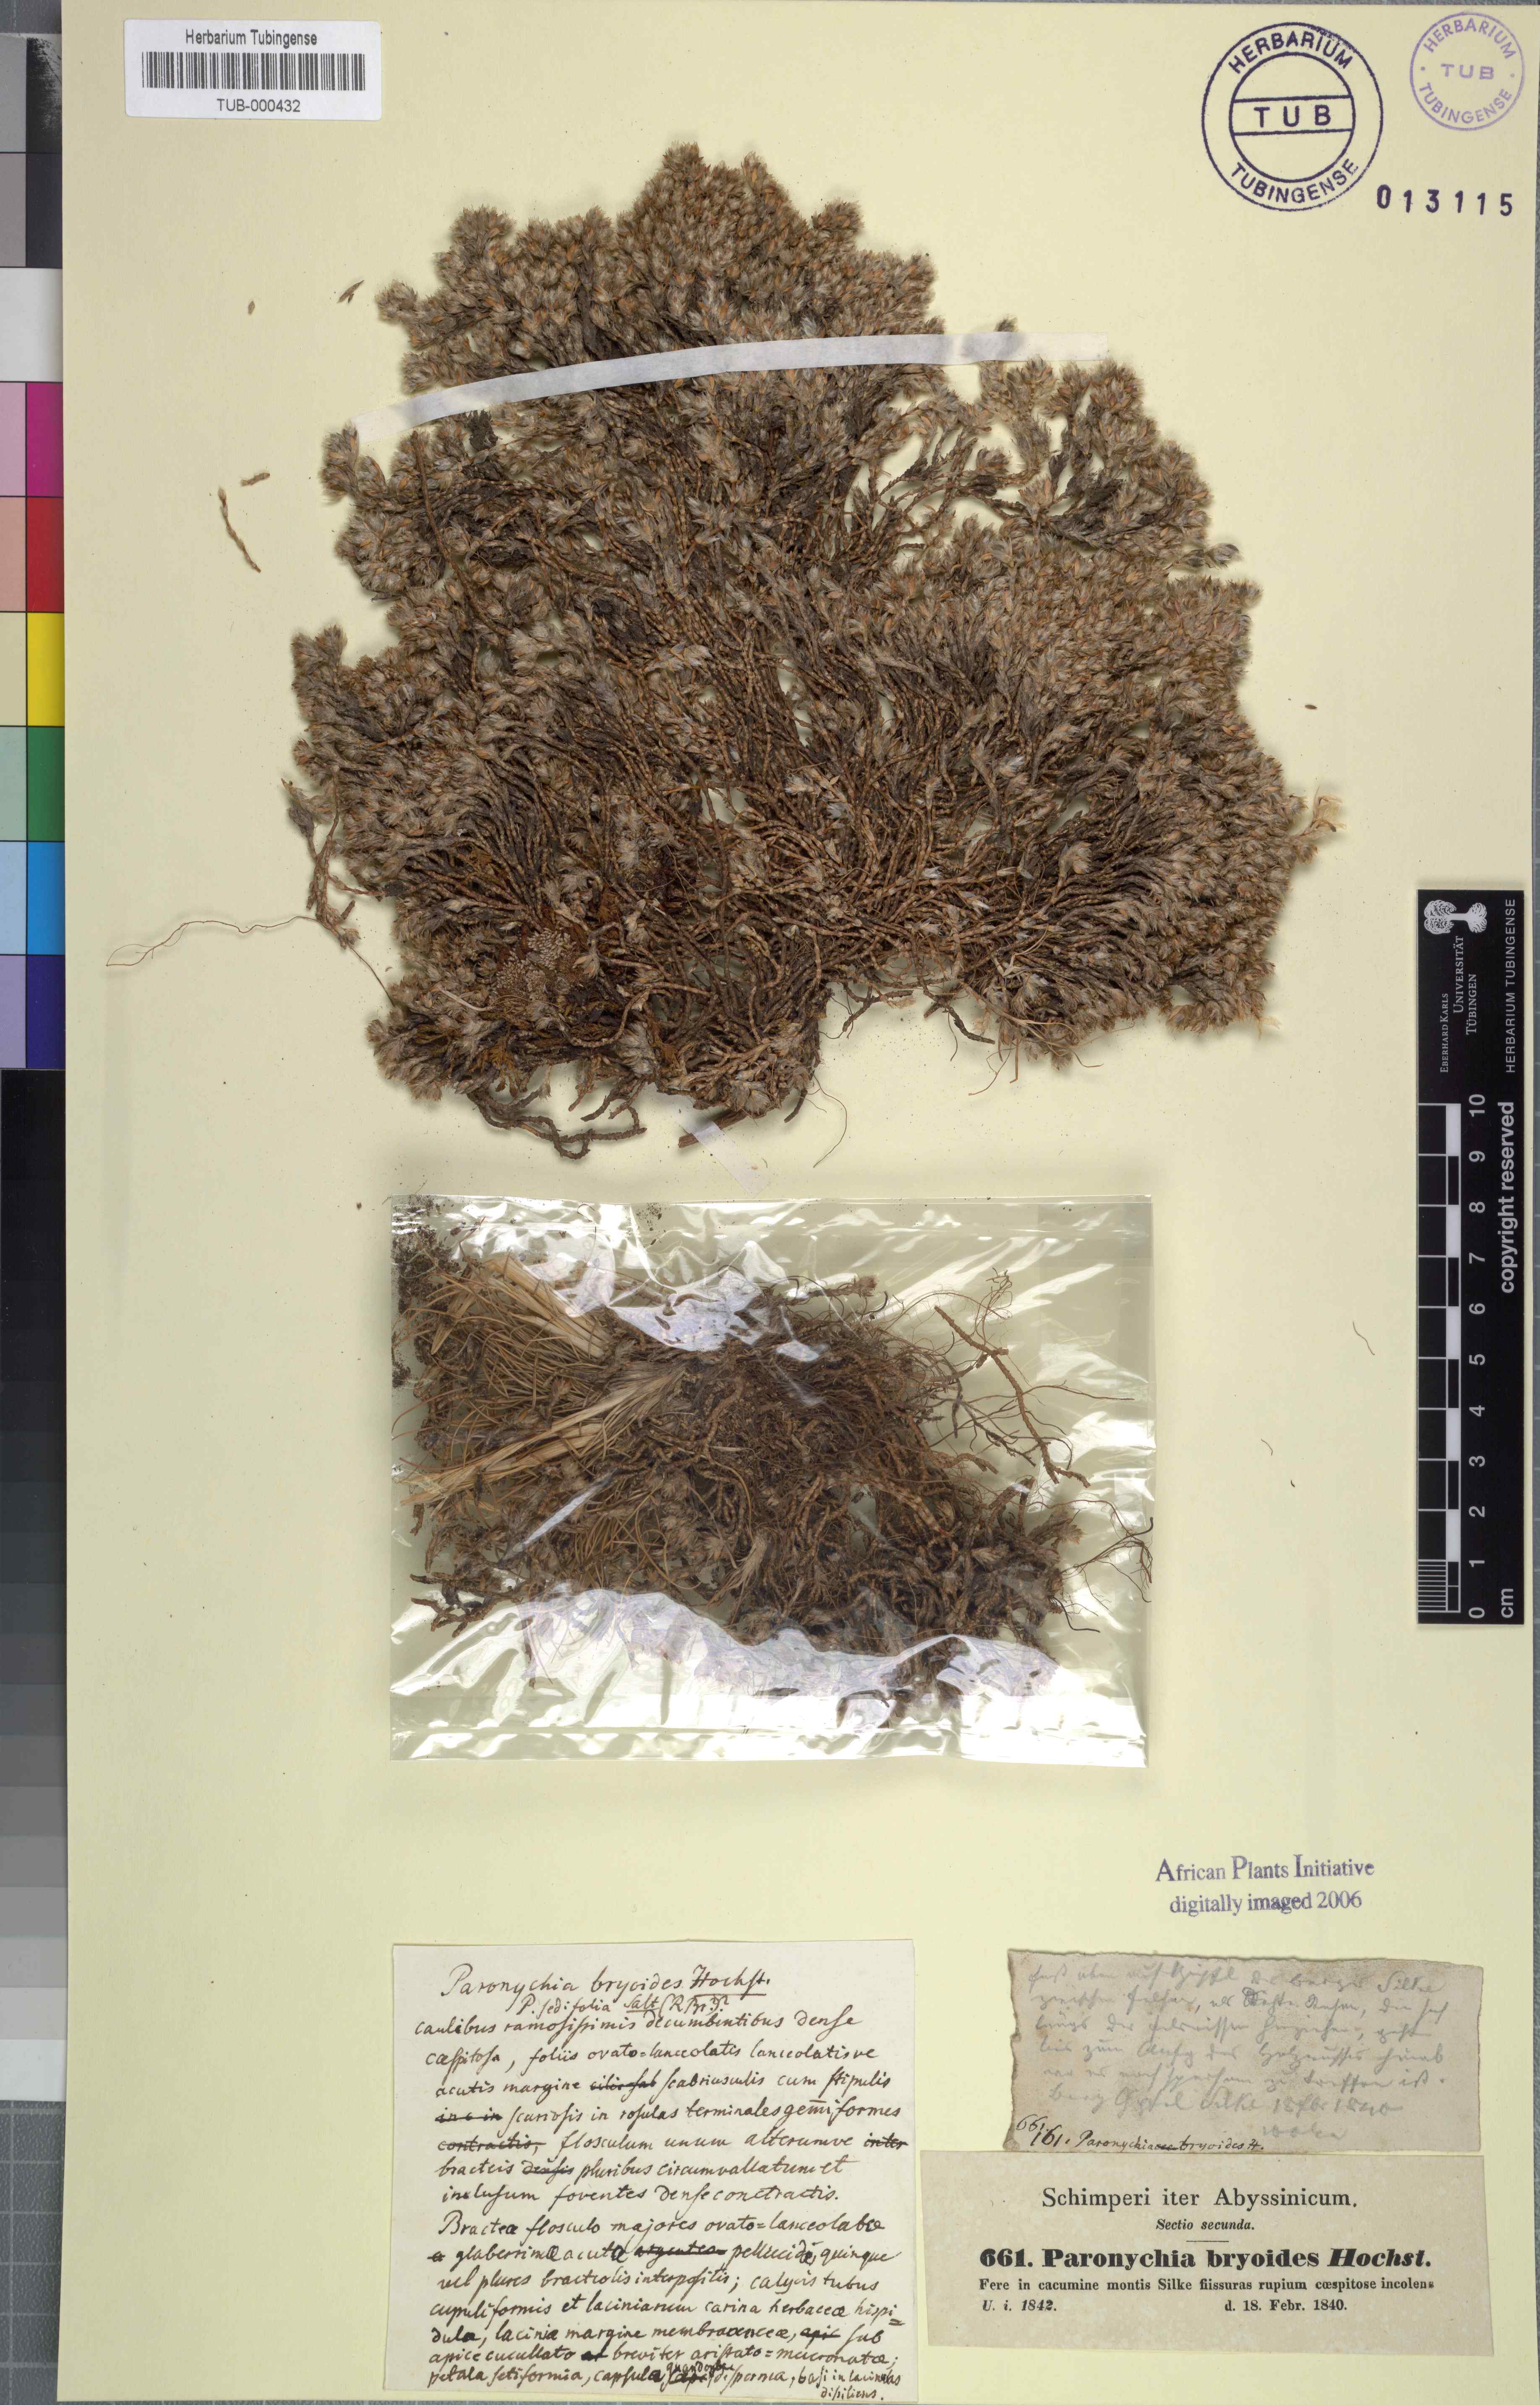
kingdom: Plantae
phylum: Tracheophyta
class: Magnoliopsida
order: Caryophyllales
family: Caryophyllaceae
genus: Paronychia
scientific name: Paronychia bryoides
